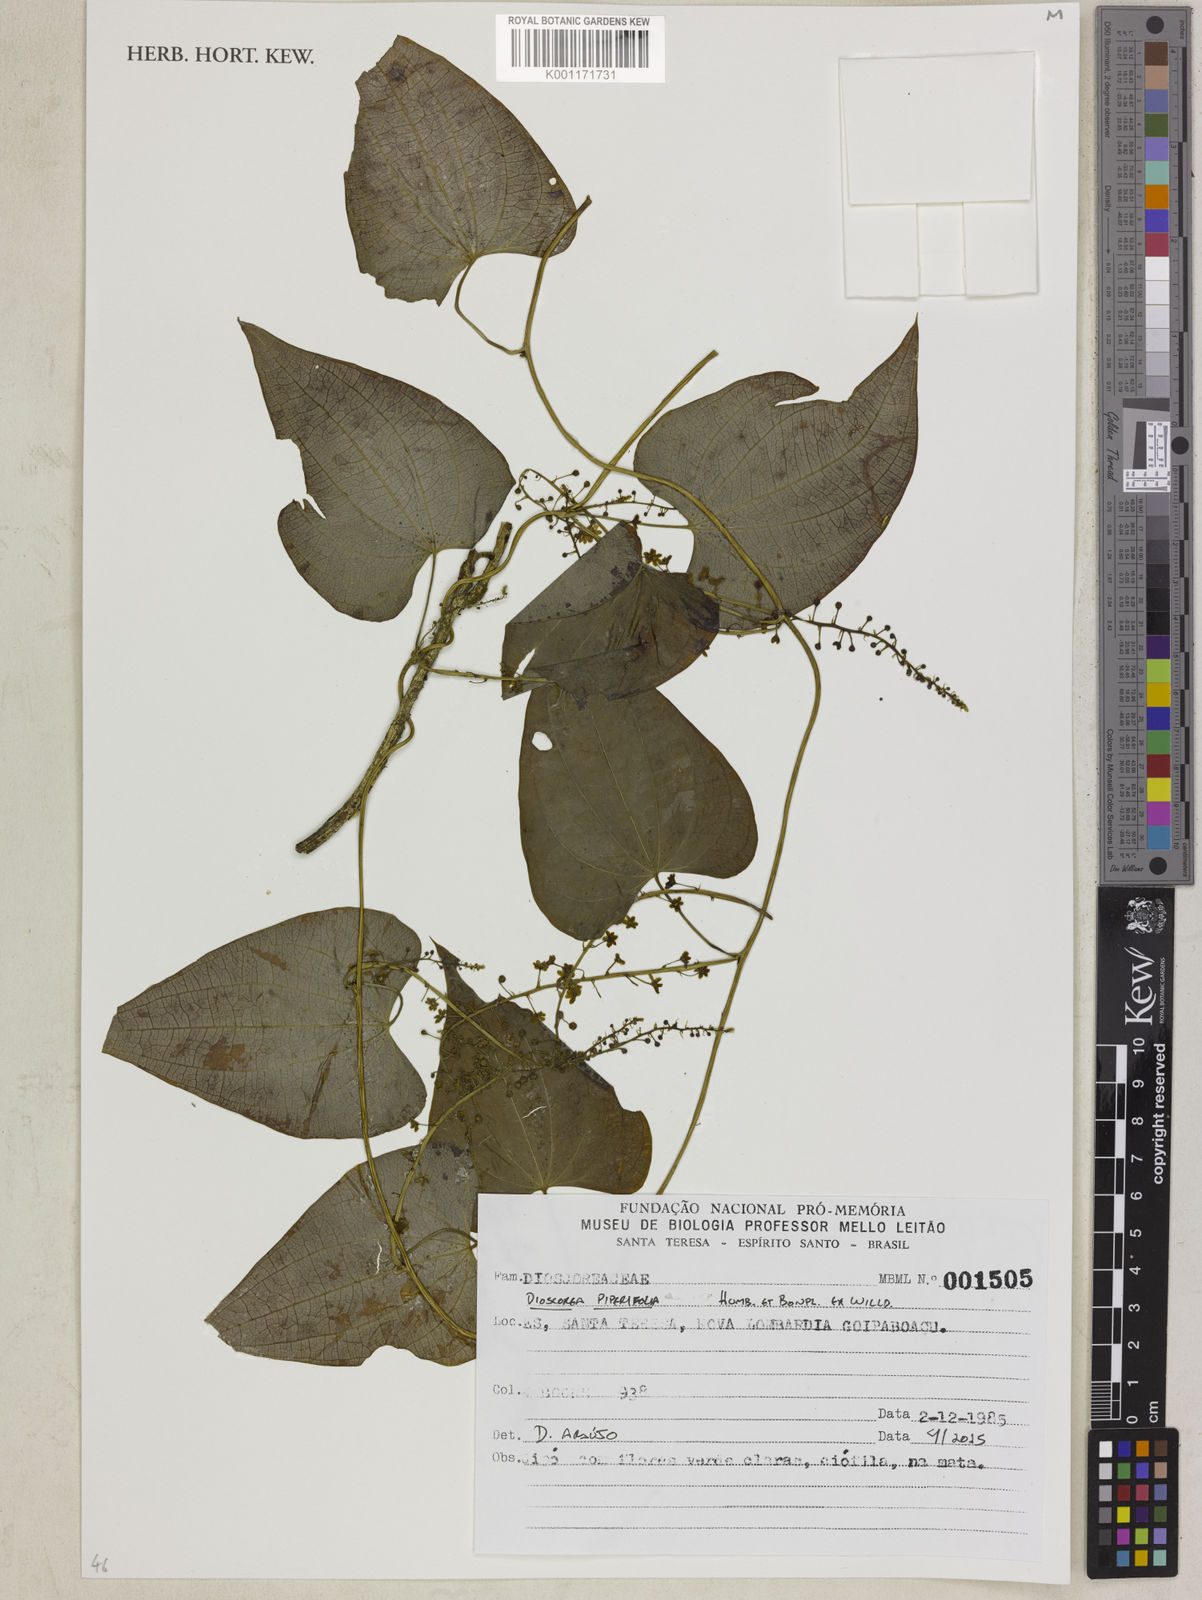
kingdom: Plantae
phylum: Tracheophyta
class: Liliopsida
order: Dioscoreales
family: Dioscoreaceae
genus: Dioscorea
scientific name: Dioscorea piperifolia
